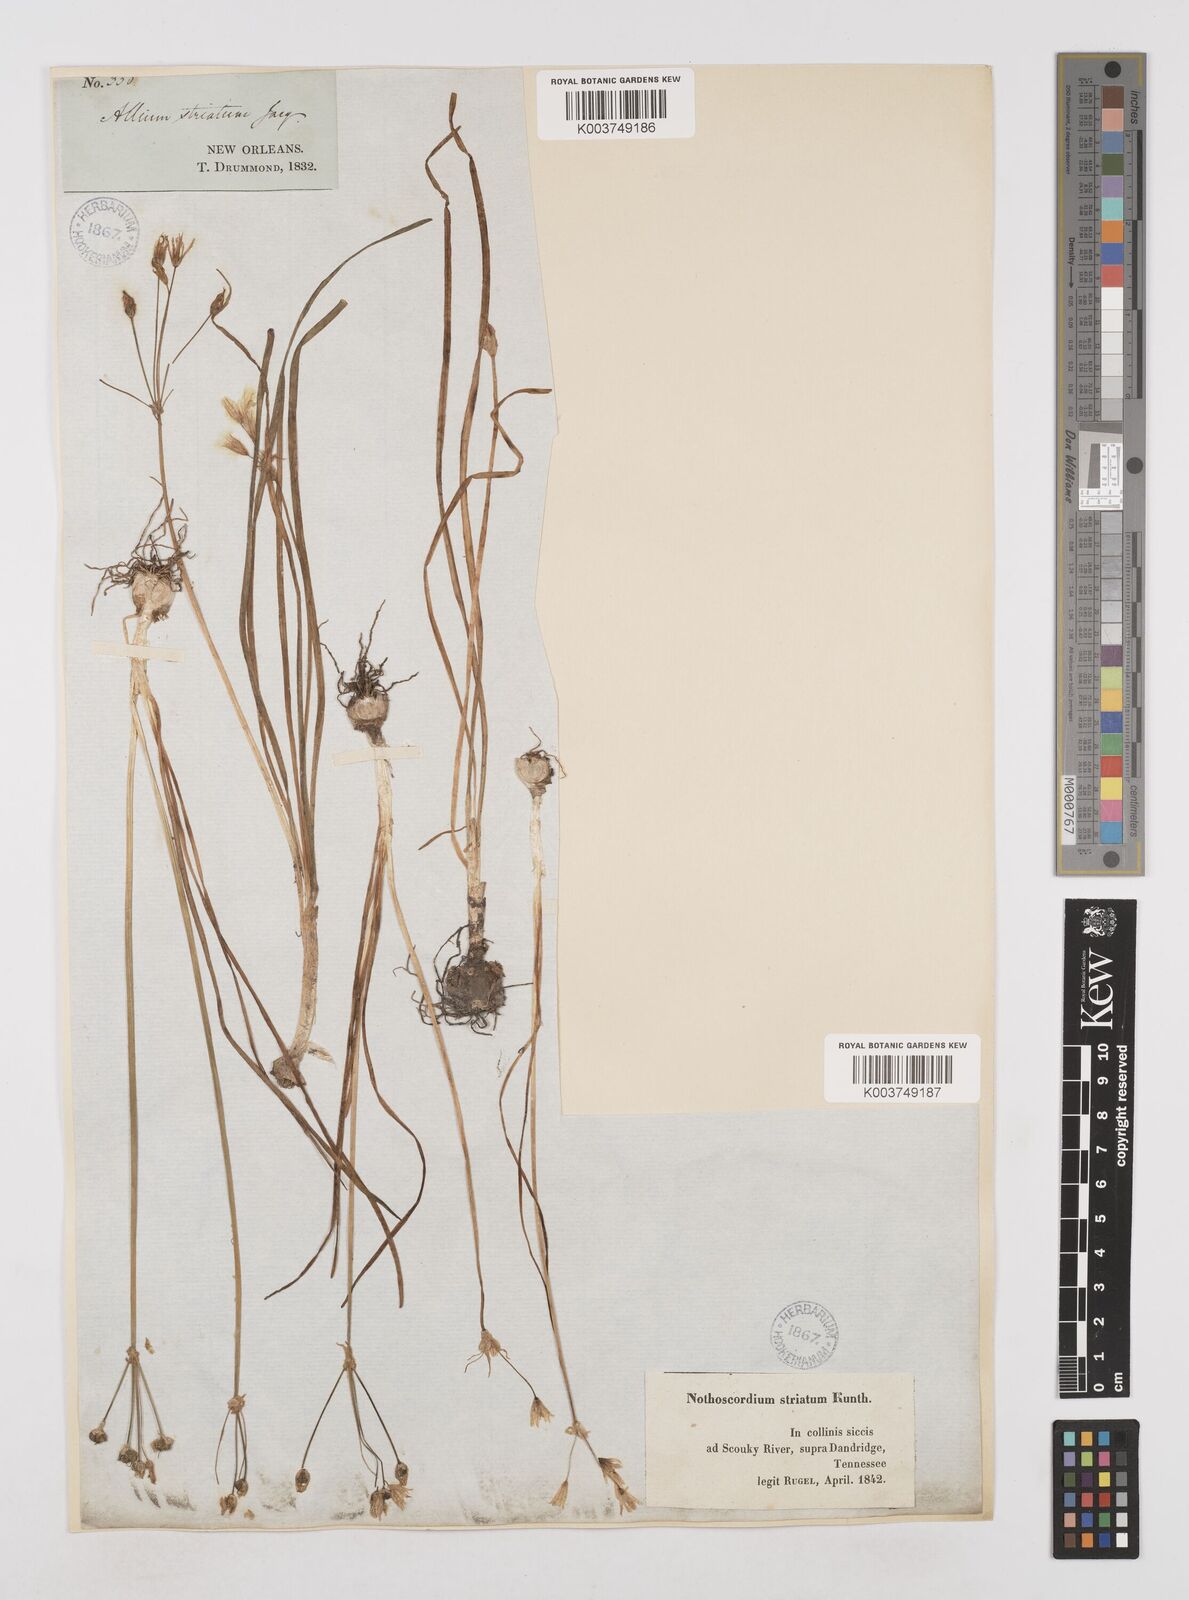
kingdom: Plantae
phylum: Tracheophyta
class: Liliopsida
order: Asparagales
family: Amaryllidaceae
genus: Nothoscordum
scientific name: Nothoscordum bivalve
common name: Crow-poison
